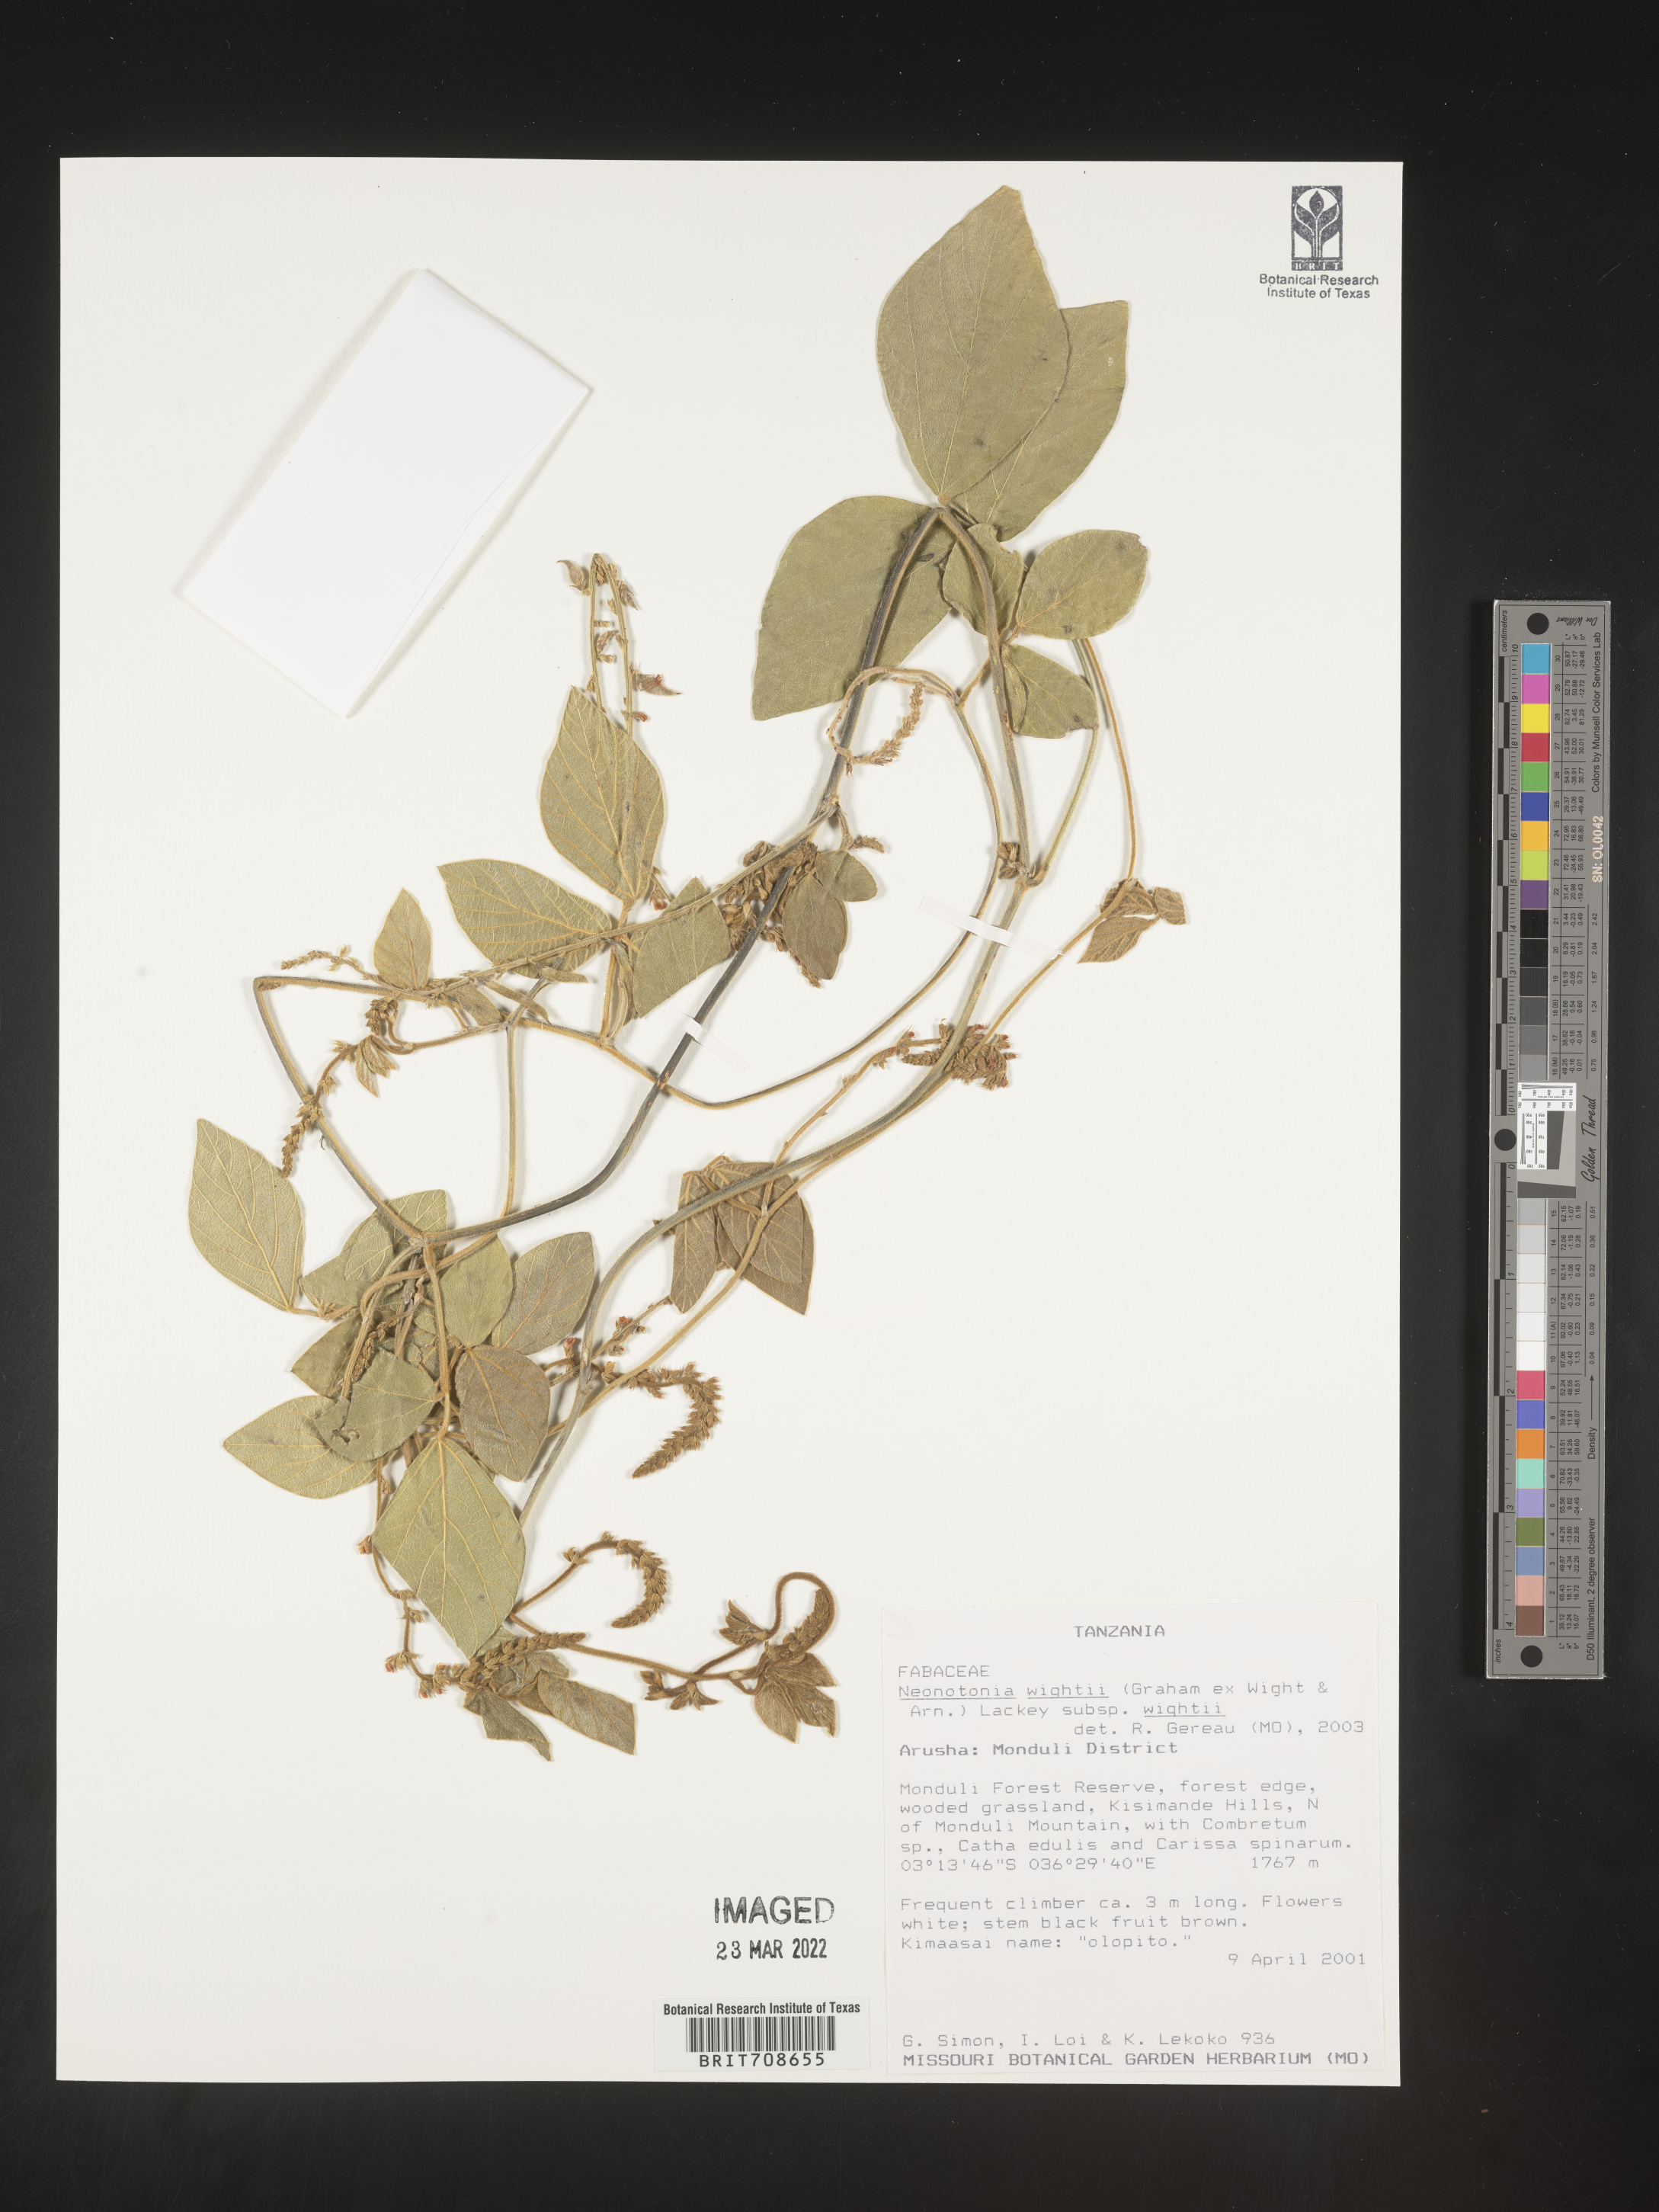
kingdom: Plantae
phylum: Tracheophyta
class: Magnoliopsida
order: Fabales
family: Fabaceae
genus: Neonotonia
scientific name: Neonotonia
